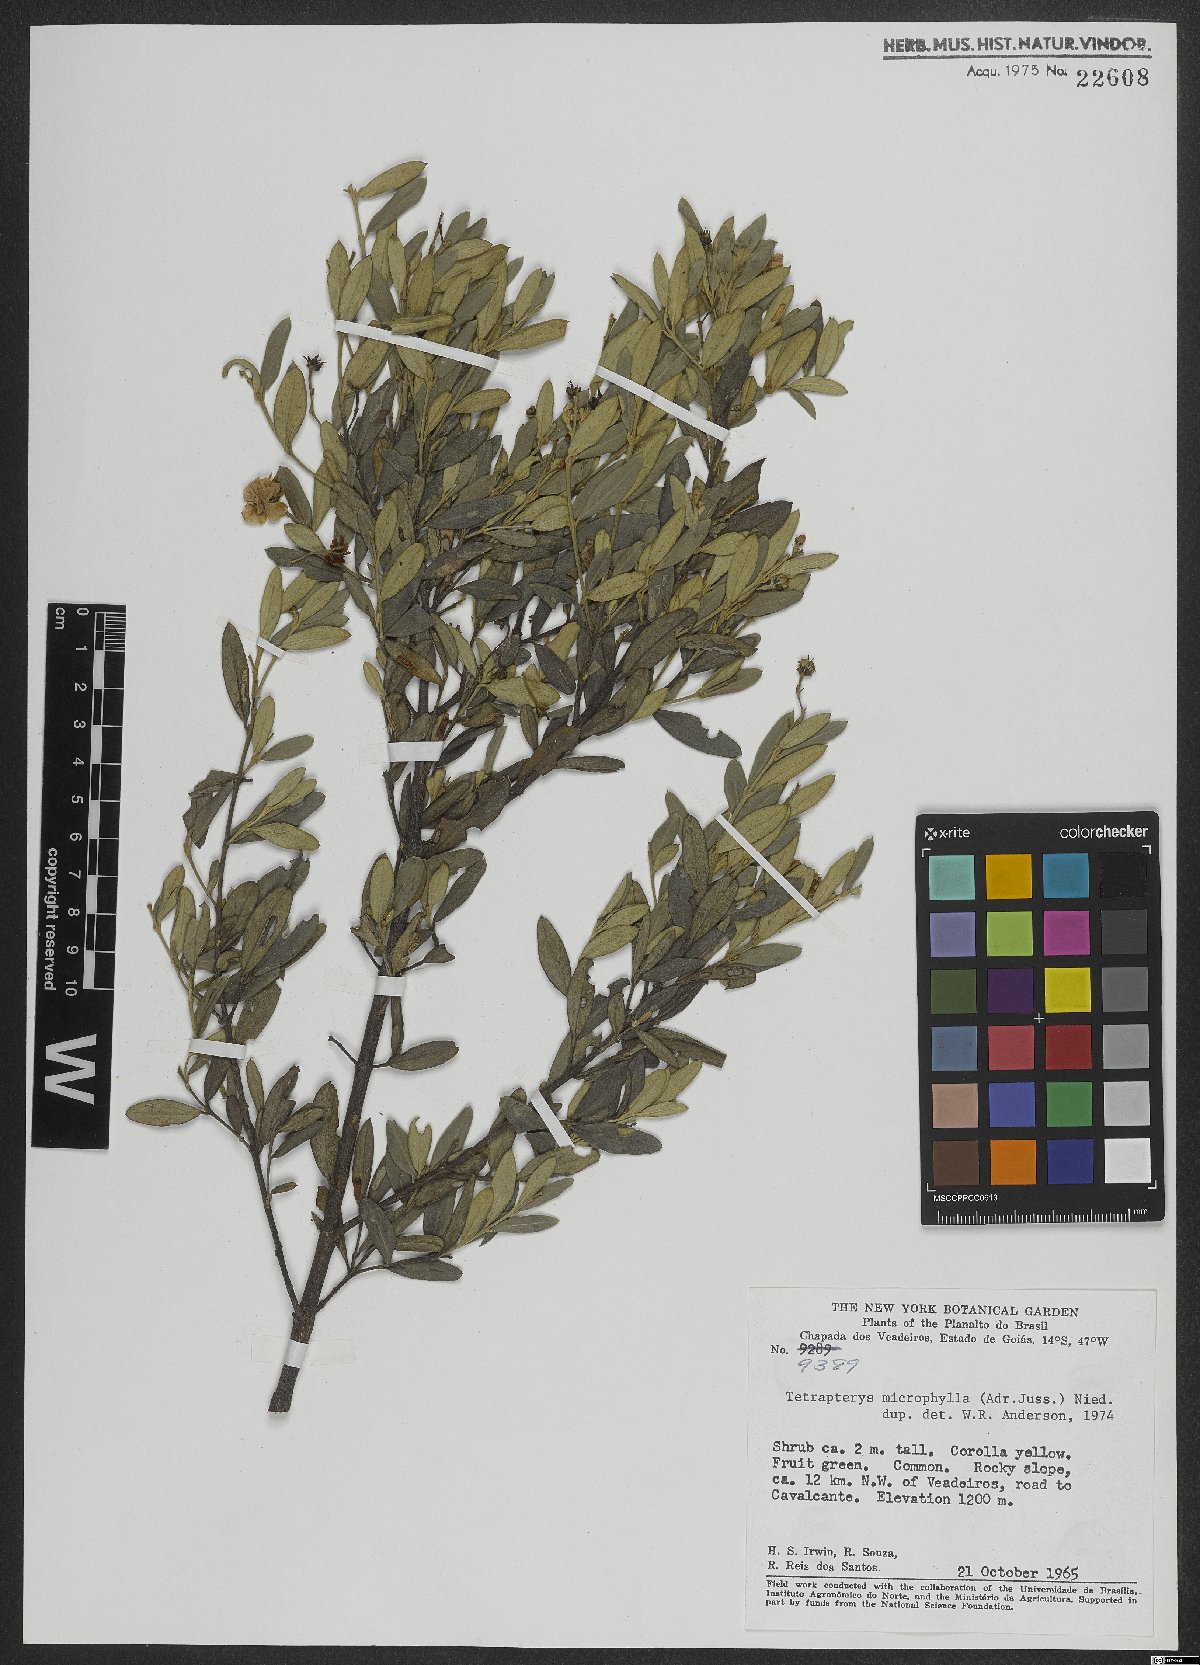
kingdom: Plantae
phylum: Tracheophyta
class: Magnoliopsida
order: Malpighiales
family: Malpighiaceae
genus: Glicophyllum
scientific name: Glicophyllum microphyllum
